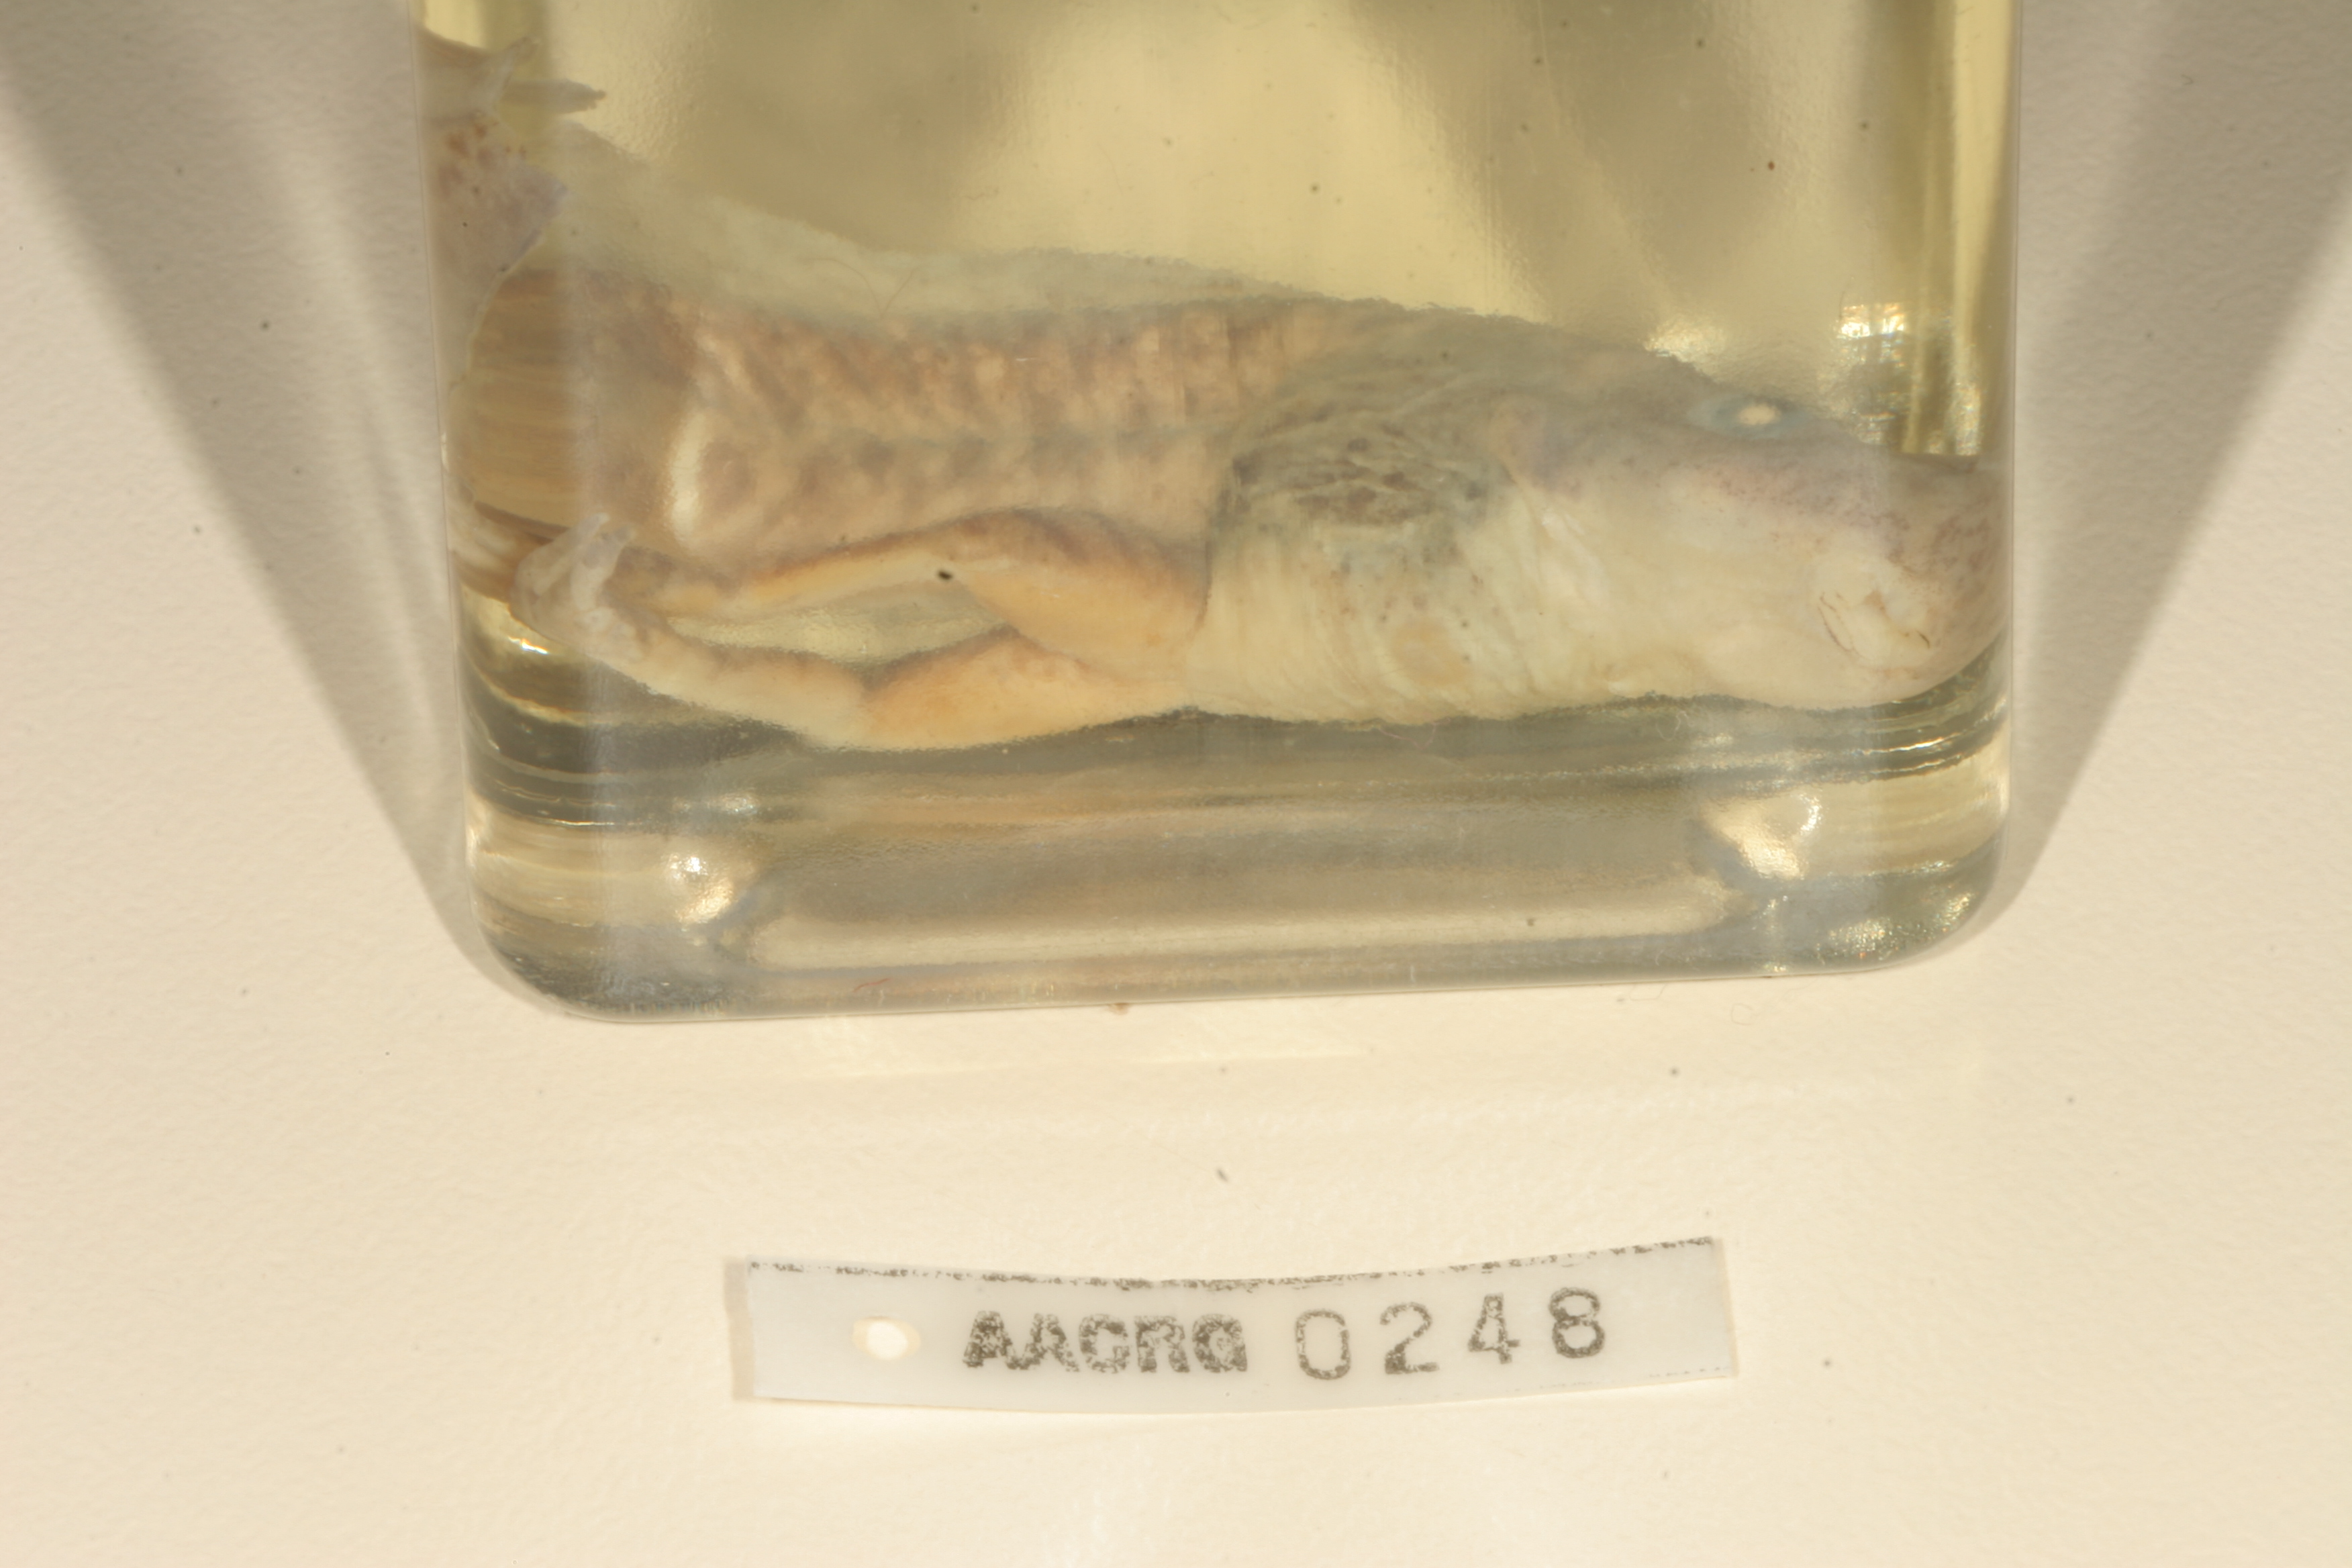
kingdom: Animalia
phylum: Chordata
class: Amphibia
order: Anura
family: Pyxicephalidae
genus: Amietia
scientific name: Amietia fuscigula
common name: Cape rana
